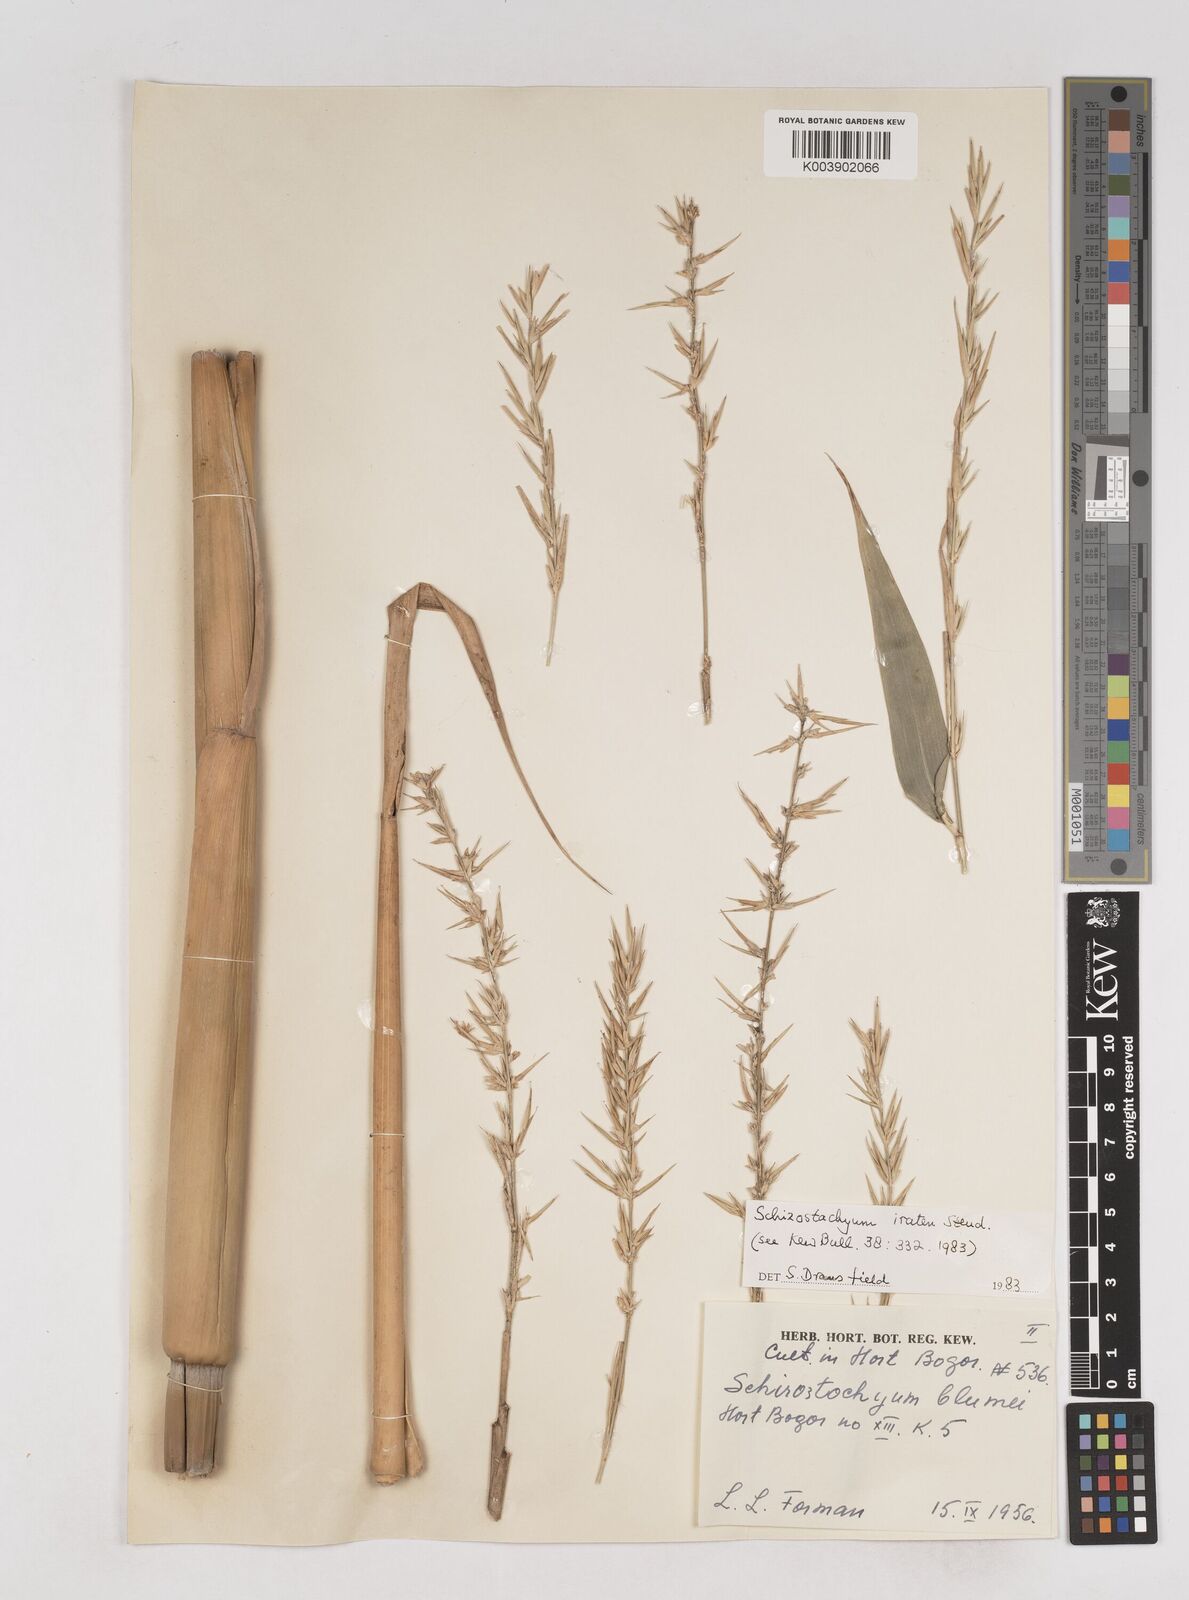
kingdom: Plantae
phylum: Tracheophyta
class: Liliopsida
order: Poales
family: Poaceae
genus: Schizostachyum
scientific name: Schizostachyum iraten
